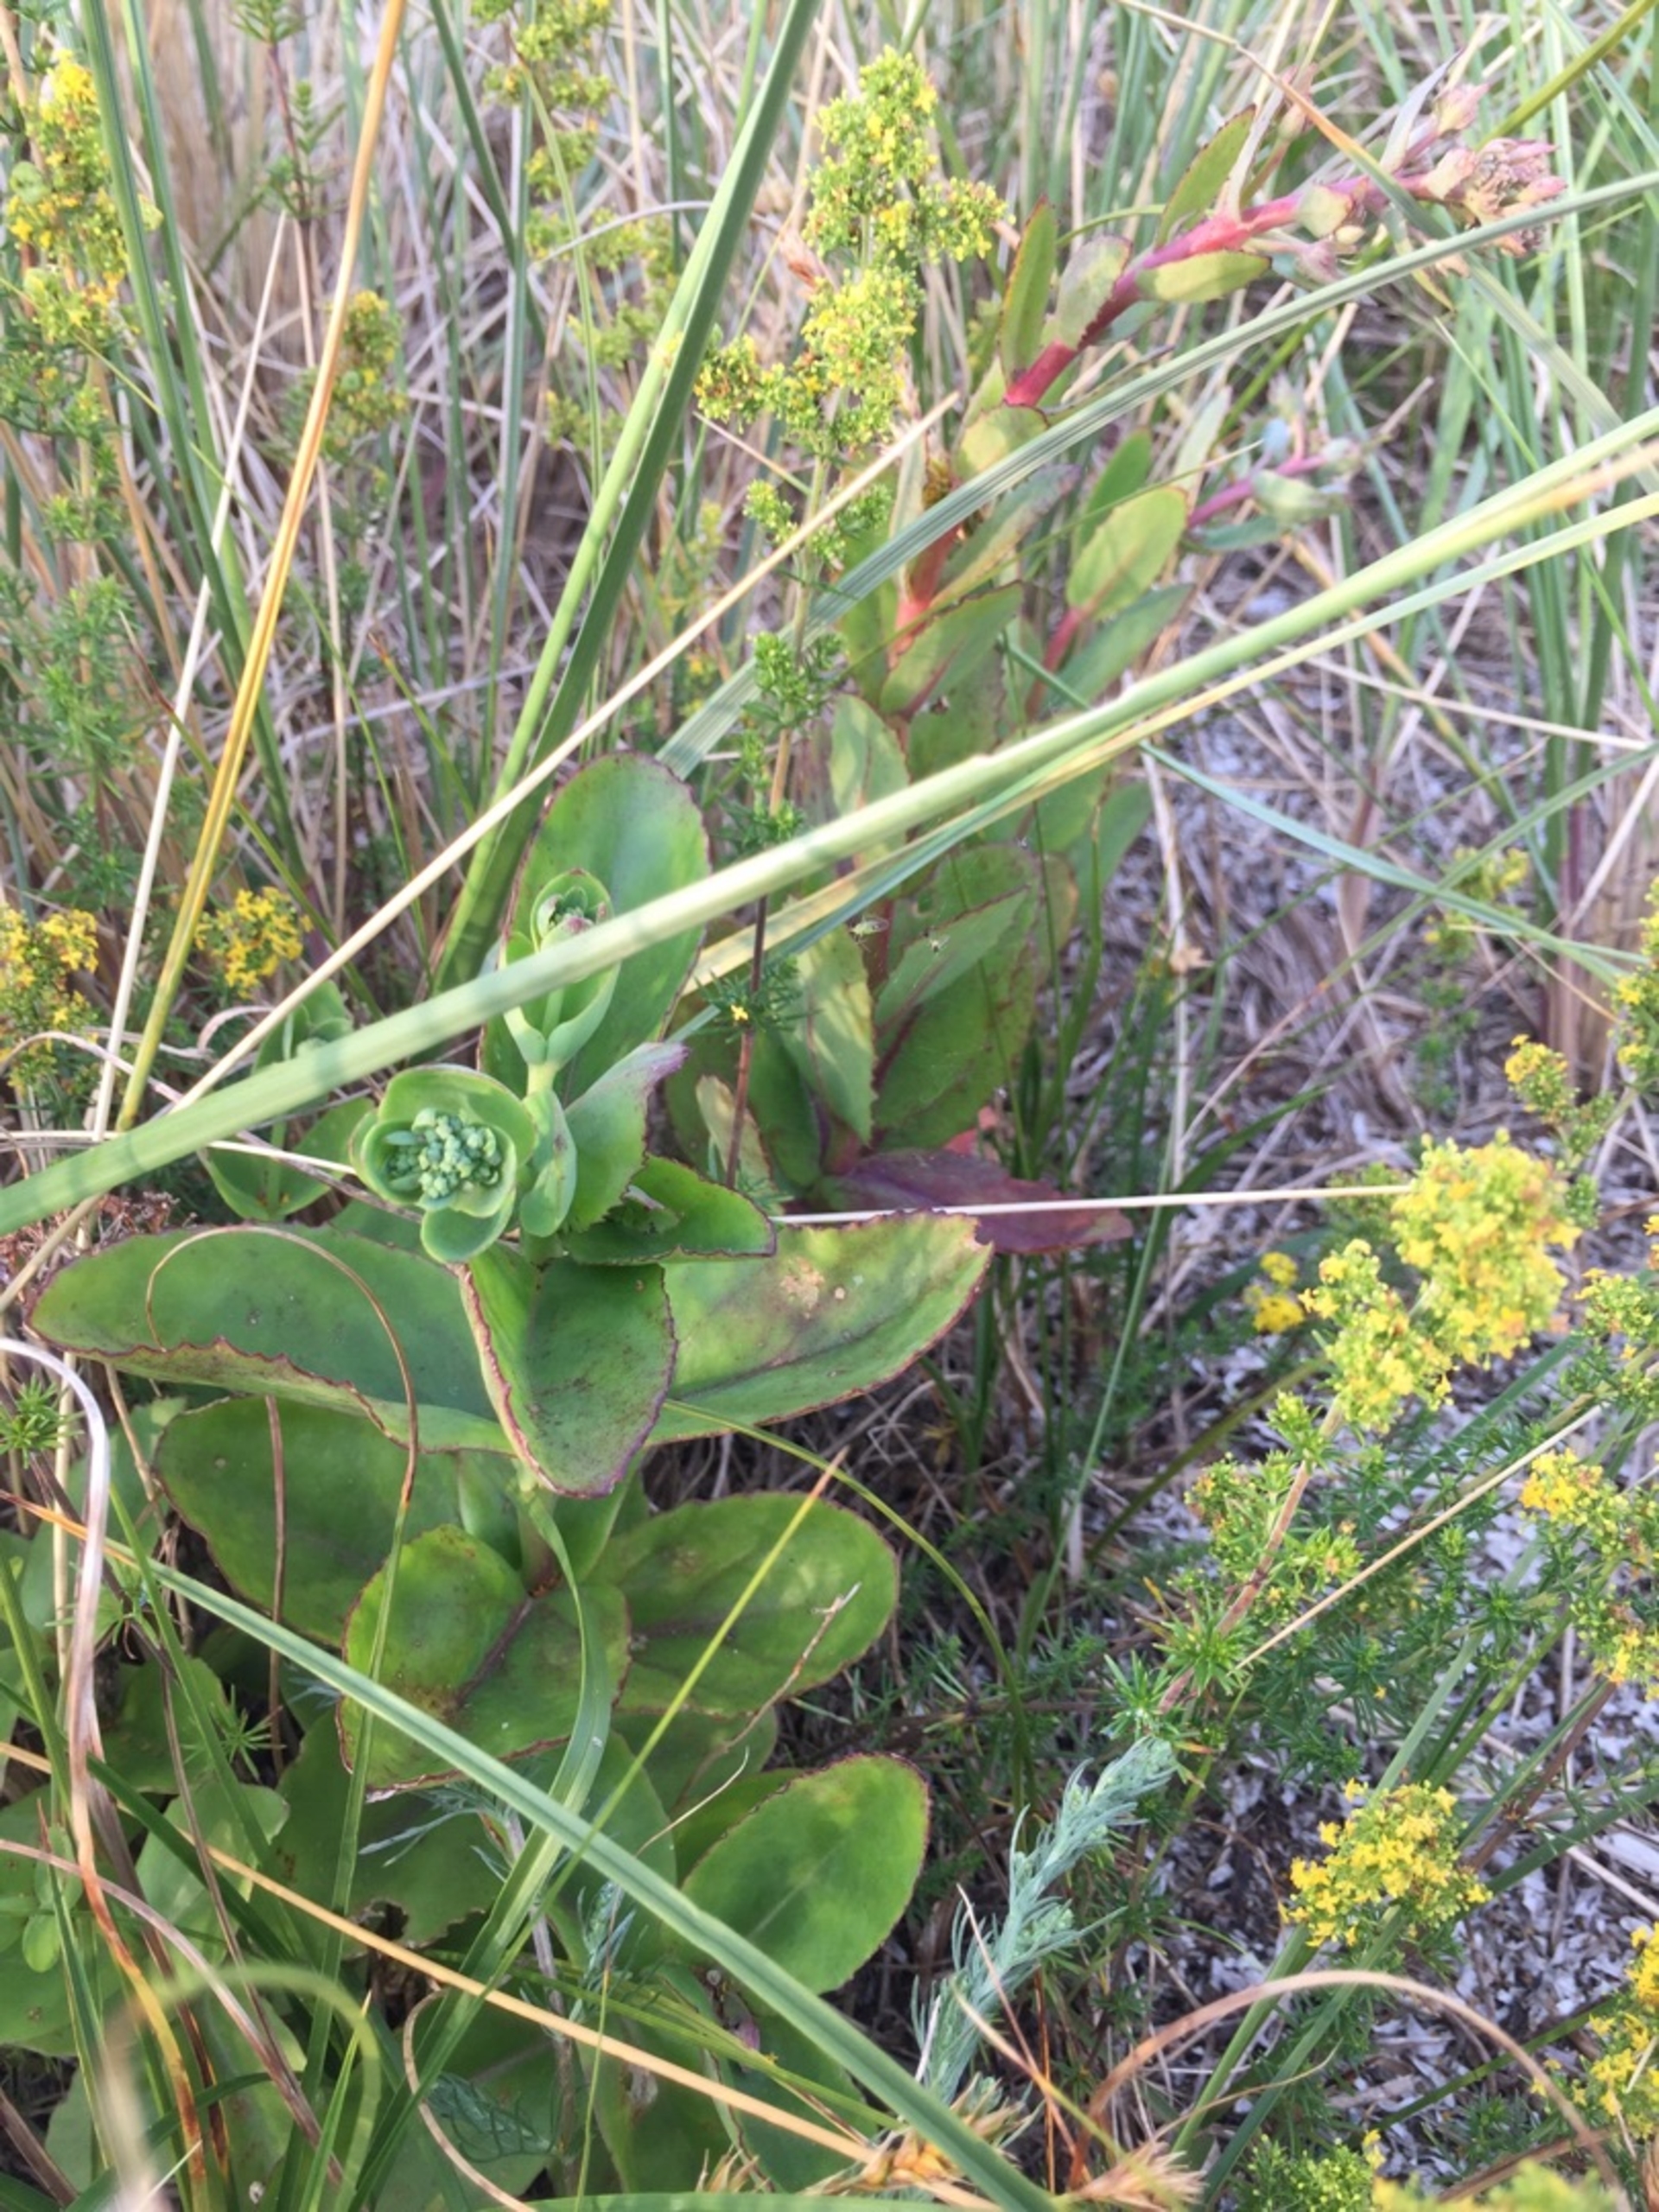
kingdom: Plantae
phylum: Tracheophyta
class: Magnoliopsida
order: Saxifragales
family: Crassulaceae
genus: Hylotelephium
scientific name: Hylotelephium maximum
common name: Almindelig sankthansurt
